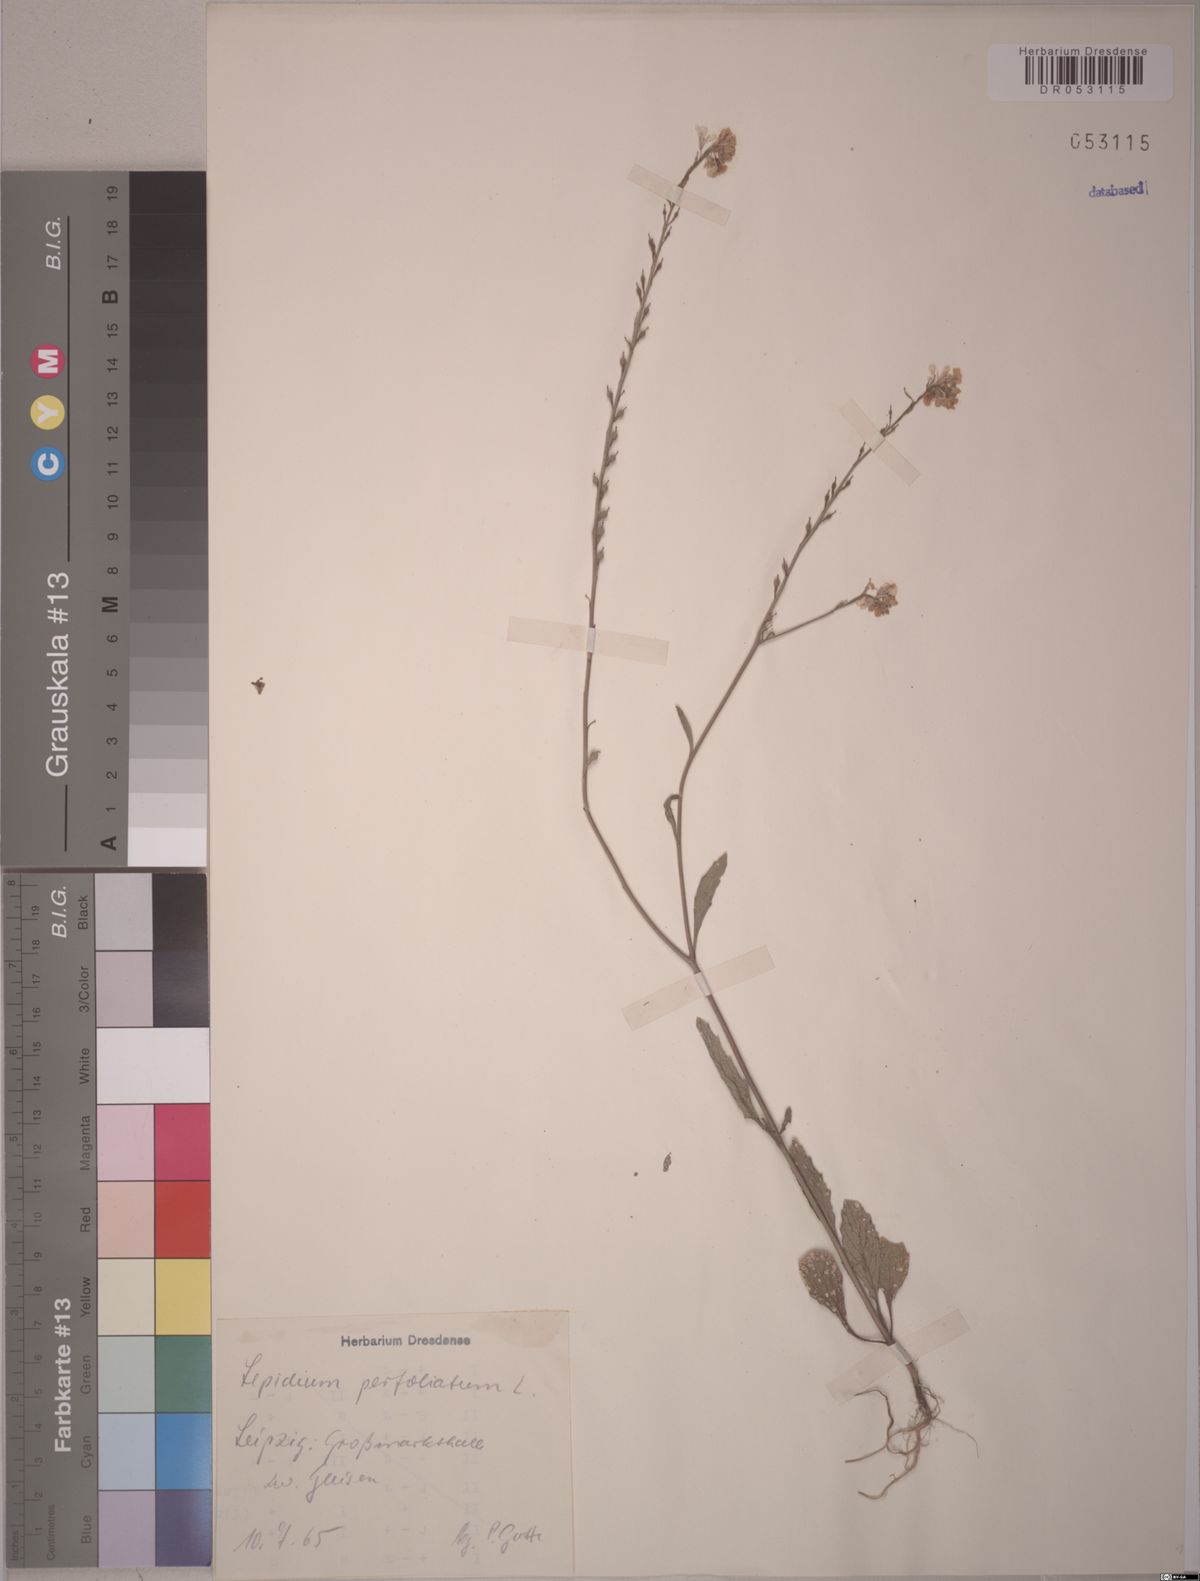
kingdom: Plantae
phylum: Tracheophyta
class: Magnoliopsida
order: Brassicales
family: Brassicaceae
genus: Lepidium
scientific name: Lepidium perfoliatum
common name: Perfoliate pepperwort
